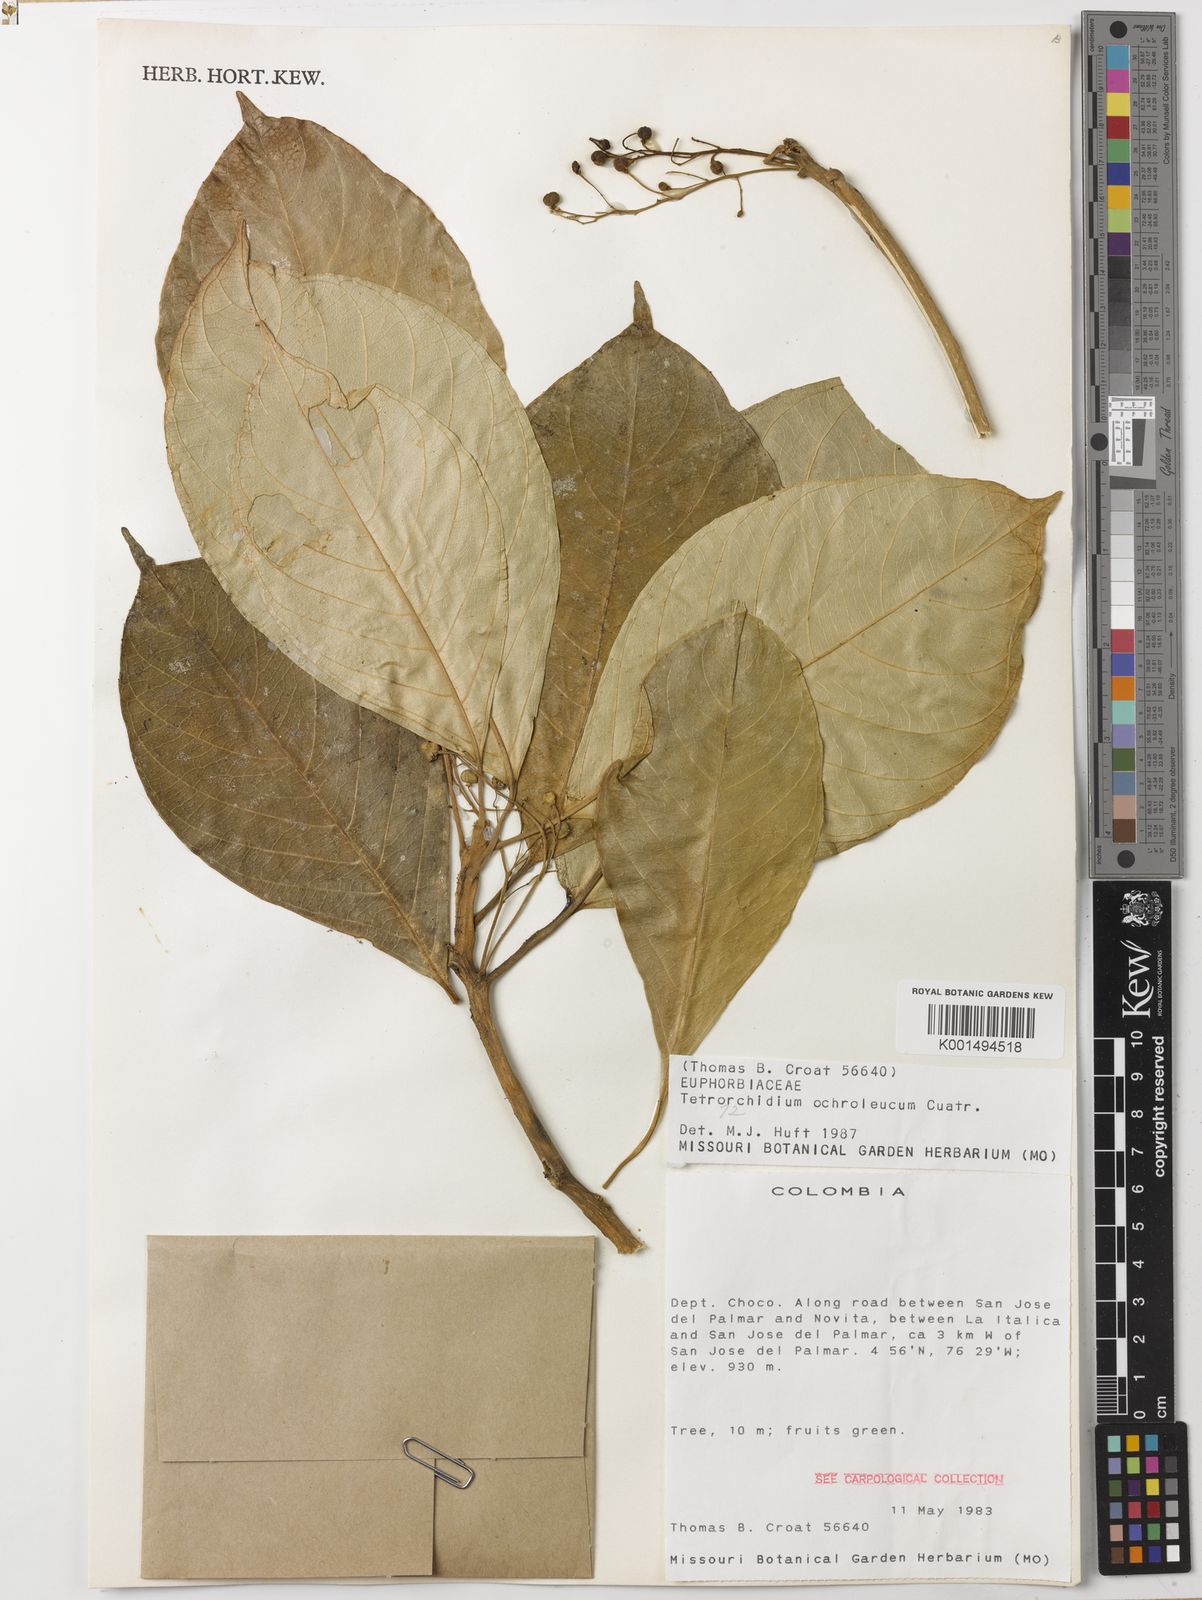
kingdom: Plantae
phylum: Tracheophyta
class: Magnoliopsida
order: Malpighiales
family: Euphorbiaceae
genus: Tetrorchidium
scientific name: Tetrorchidium ochroleucum
